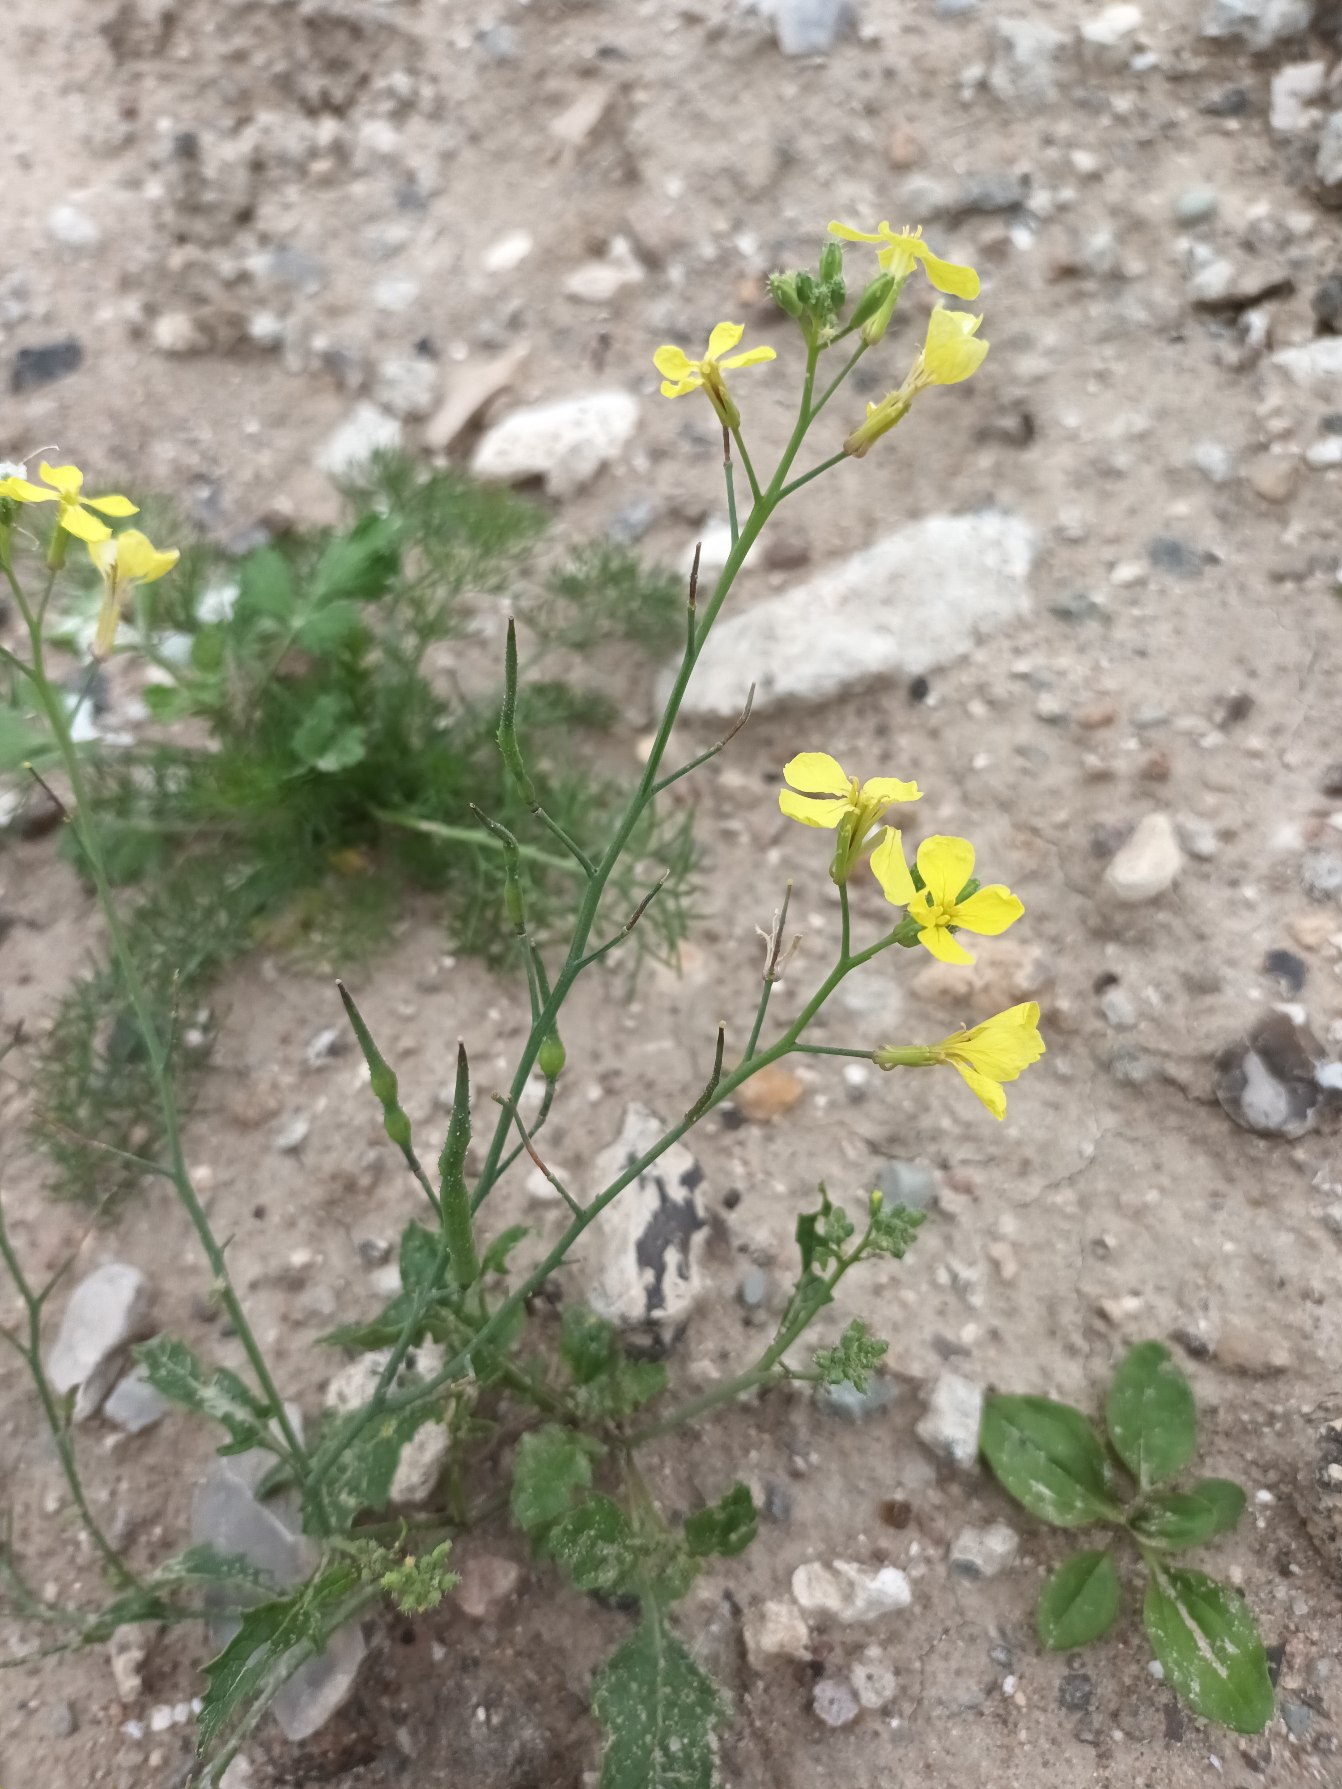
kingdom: Plantae
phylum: Tracheophyta
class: Magnoliopsida
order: Brassicales
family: Brassicaceae
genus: Raphanus
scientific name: Raphanus raphanistrum
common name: Kiddike
